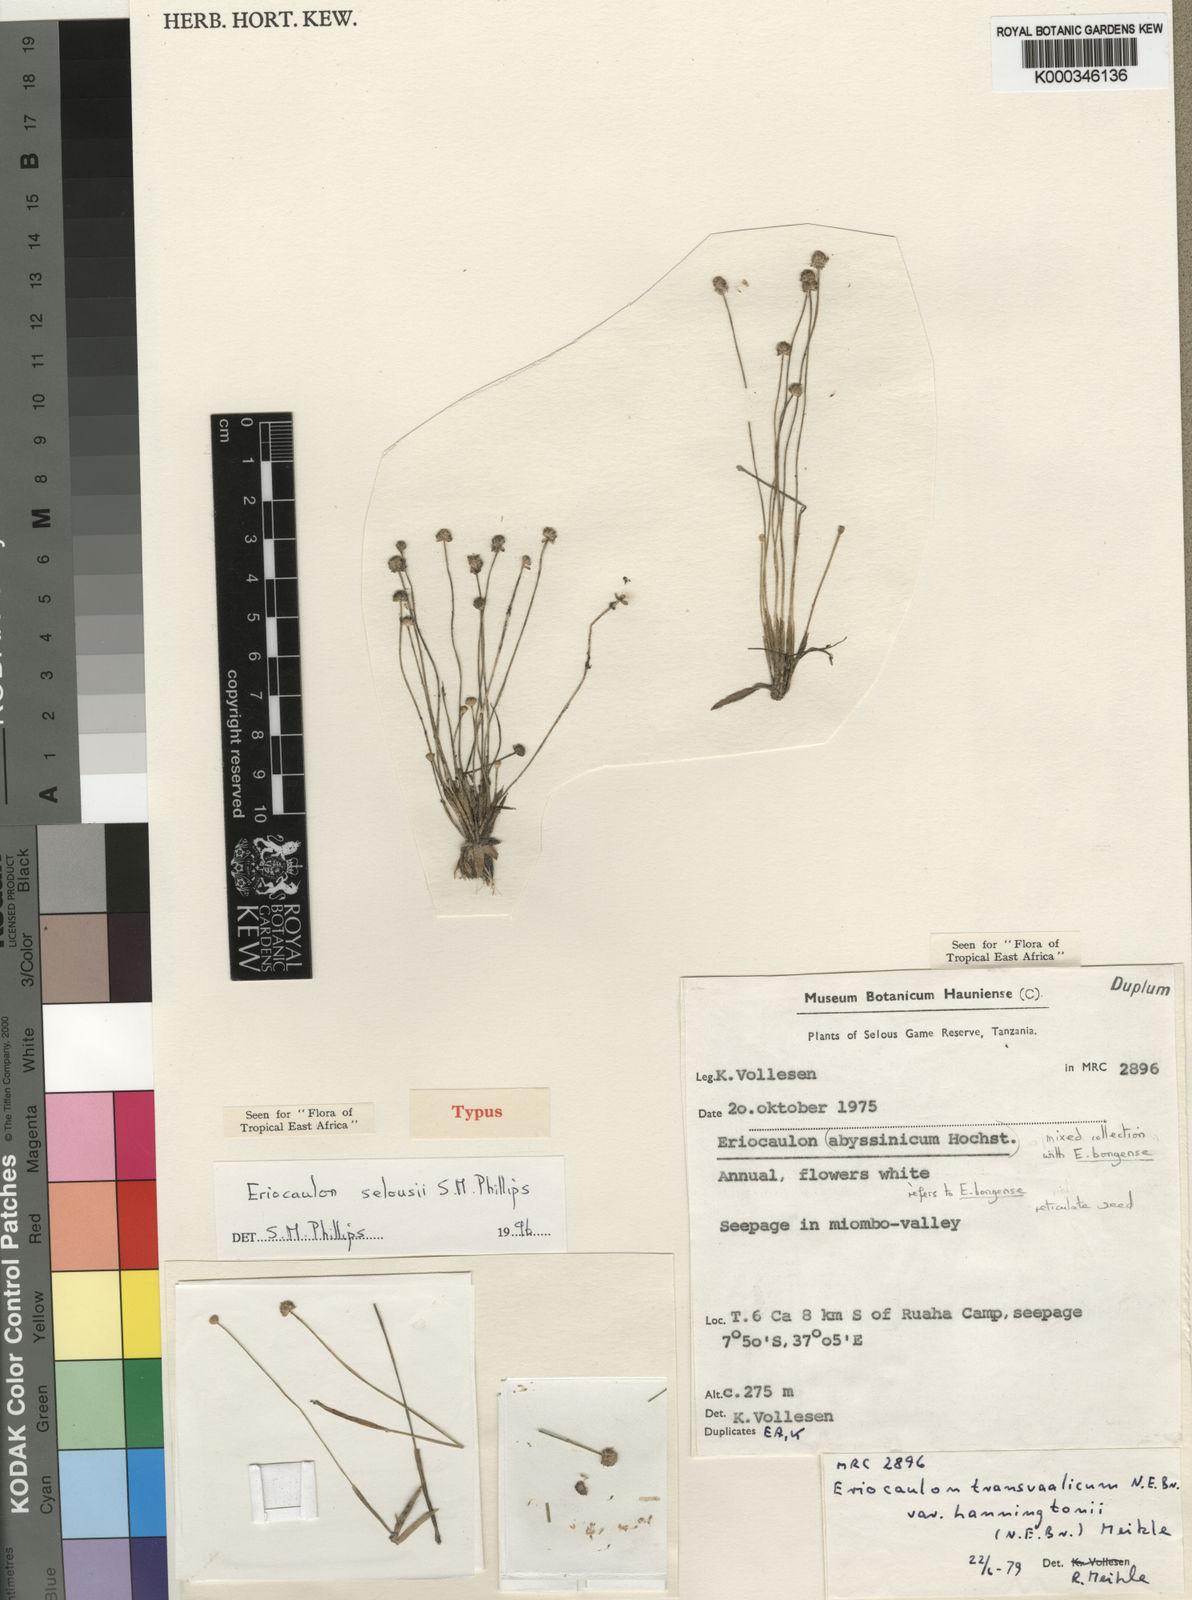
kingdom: Plantae
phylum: Tracheophyta
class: Liliopsida
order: Poales
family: Eriocaulaceae
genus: Eriocaulon
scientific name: Eriocaulon selousii
